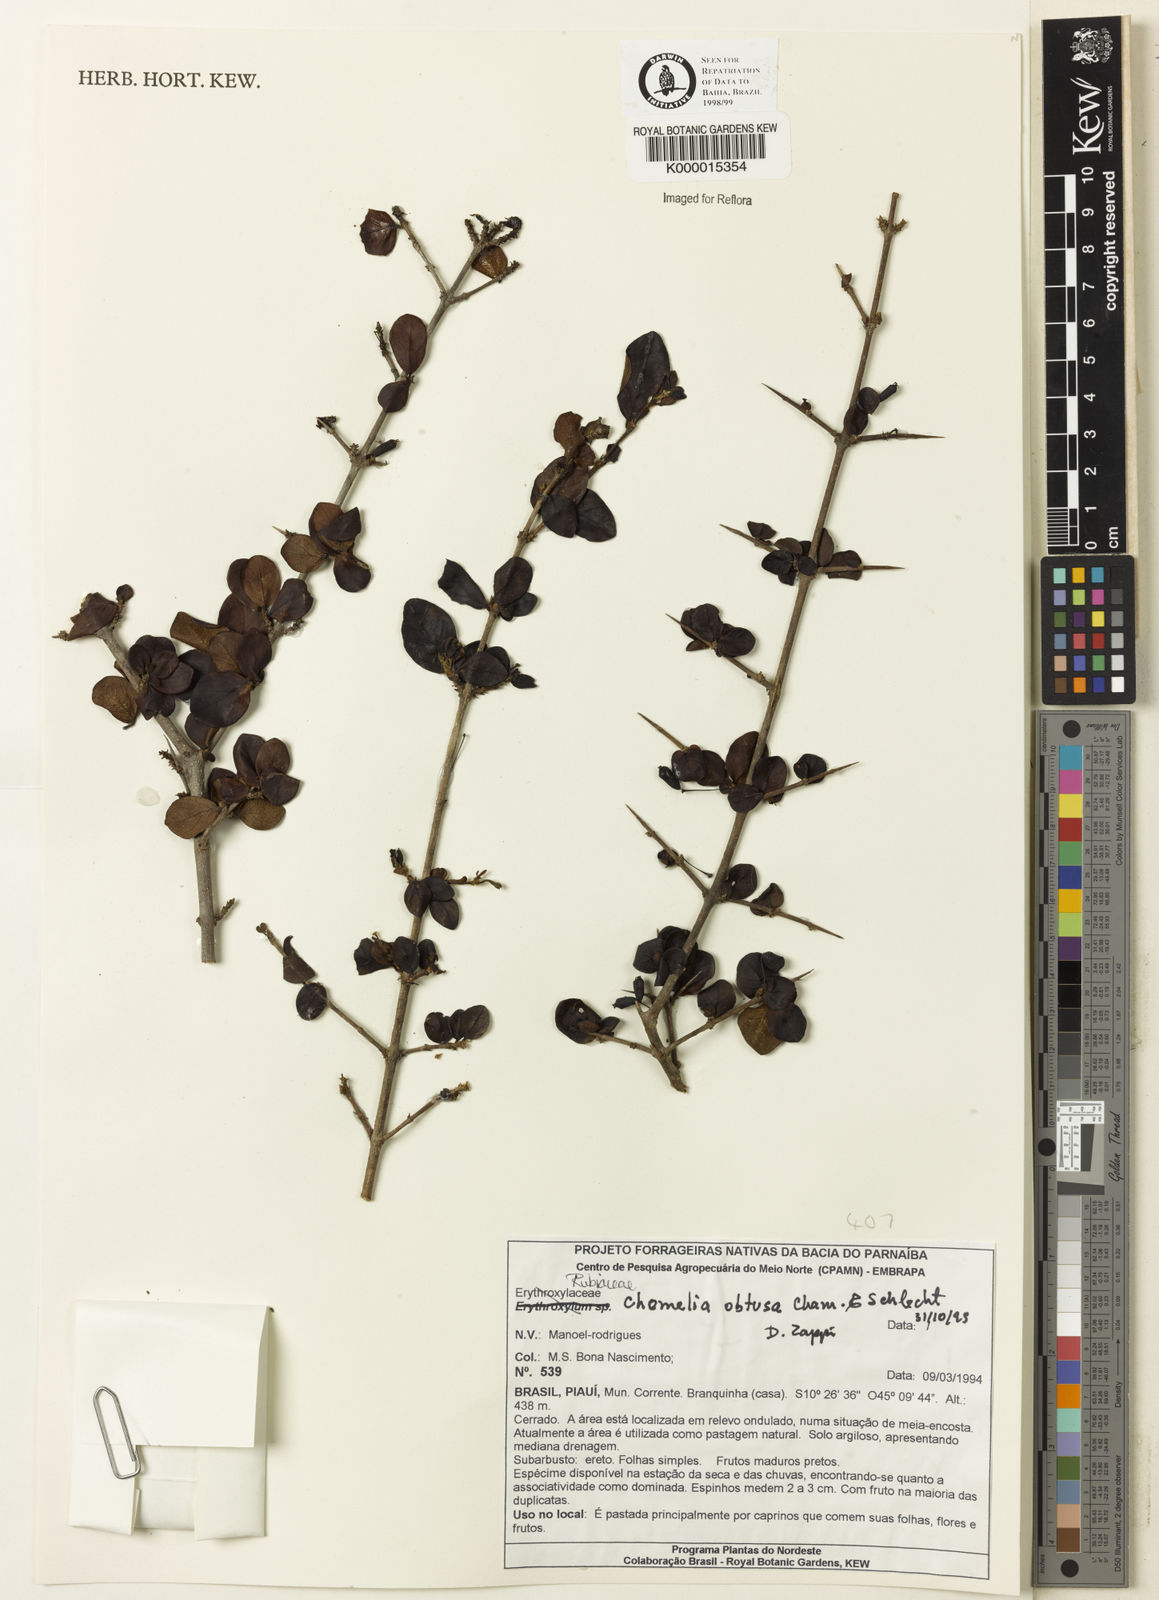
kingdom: Plantae
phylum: Tracheophyta
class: Magnoliopsida
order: Gentianales
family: Rubiaceae
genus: Chomelia
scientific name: Chomelia obtusa
